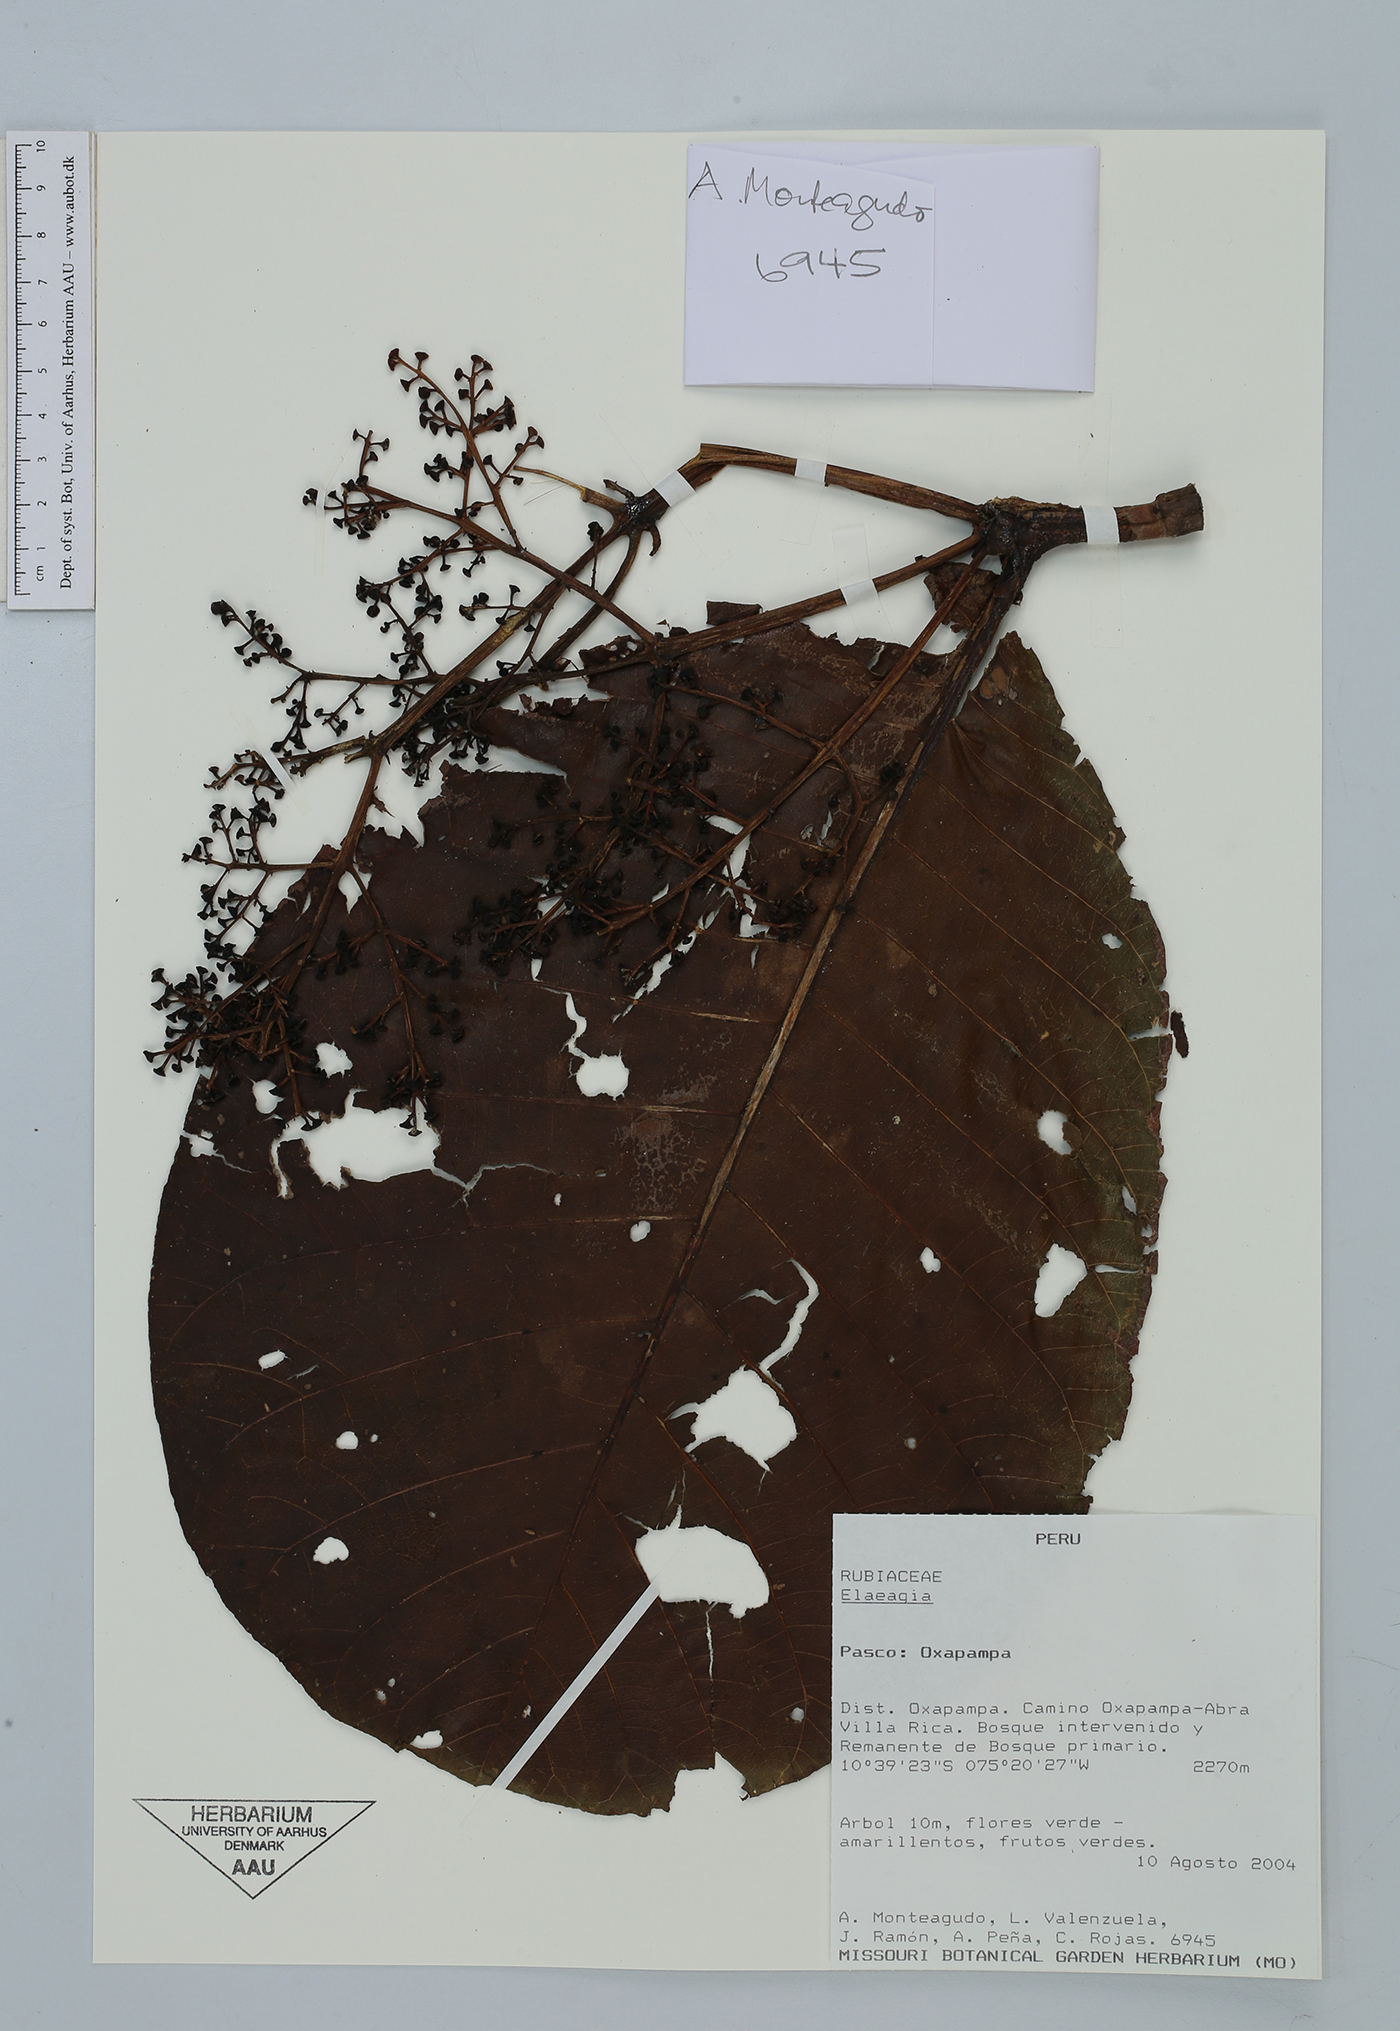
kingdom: Plantae
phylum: Tracheophyta
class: Magnoliopsida
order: Gentianales
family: Rubiaceae
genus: Elaeagia
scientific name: Elaeagia
